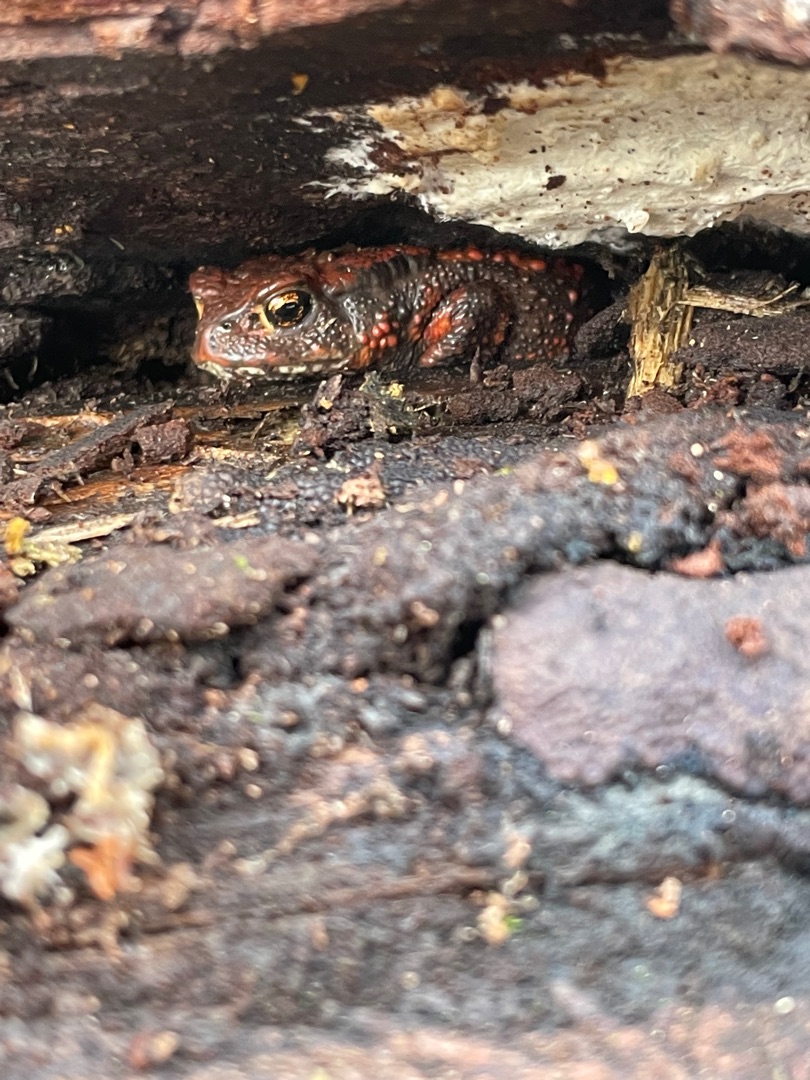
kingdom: Animalia
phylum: Chordata
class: Amphibia
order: Anura
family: Bufonidae
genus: Bufo
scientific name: Bufo bufo
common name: Skrubtudse
